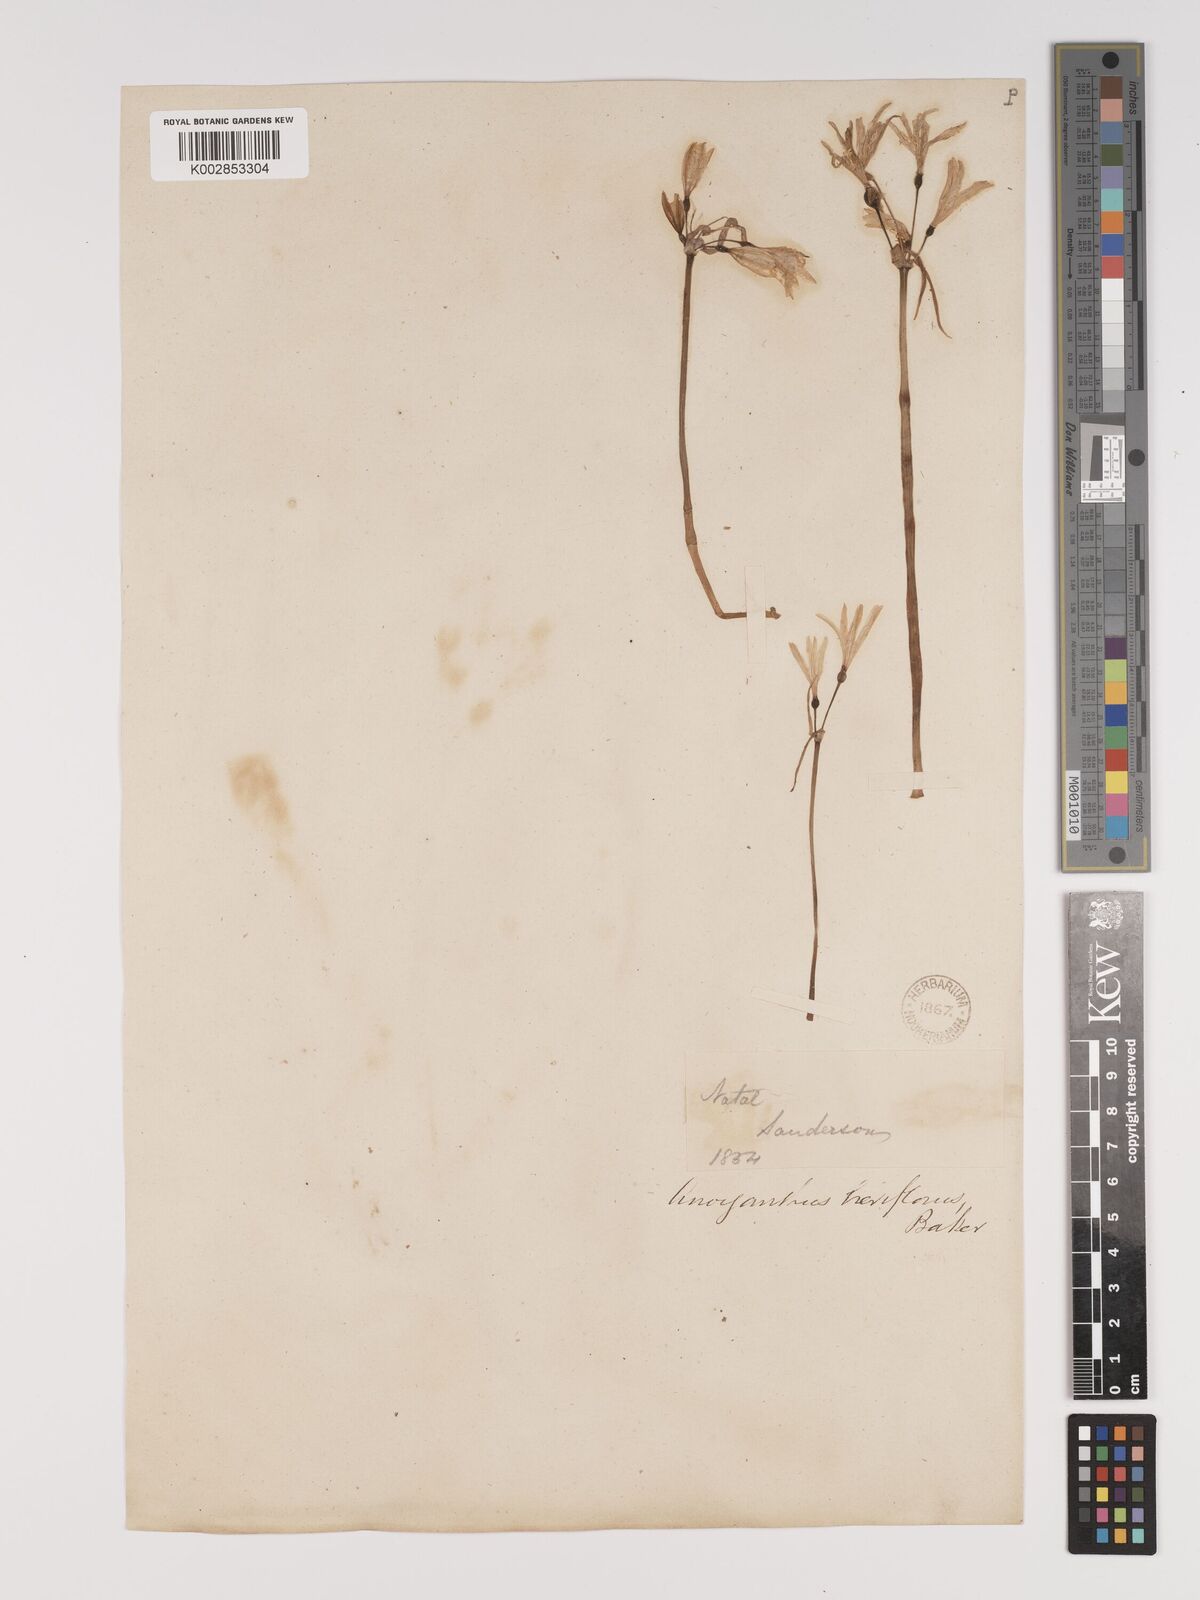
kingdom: Plantae
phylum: Tracheophyta
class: Liliopsida
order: Asparagales
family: Amaryllidaceae
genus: Cyrtanthus
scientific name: Cyrtanthus breviflorus
